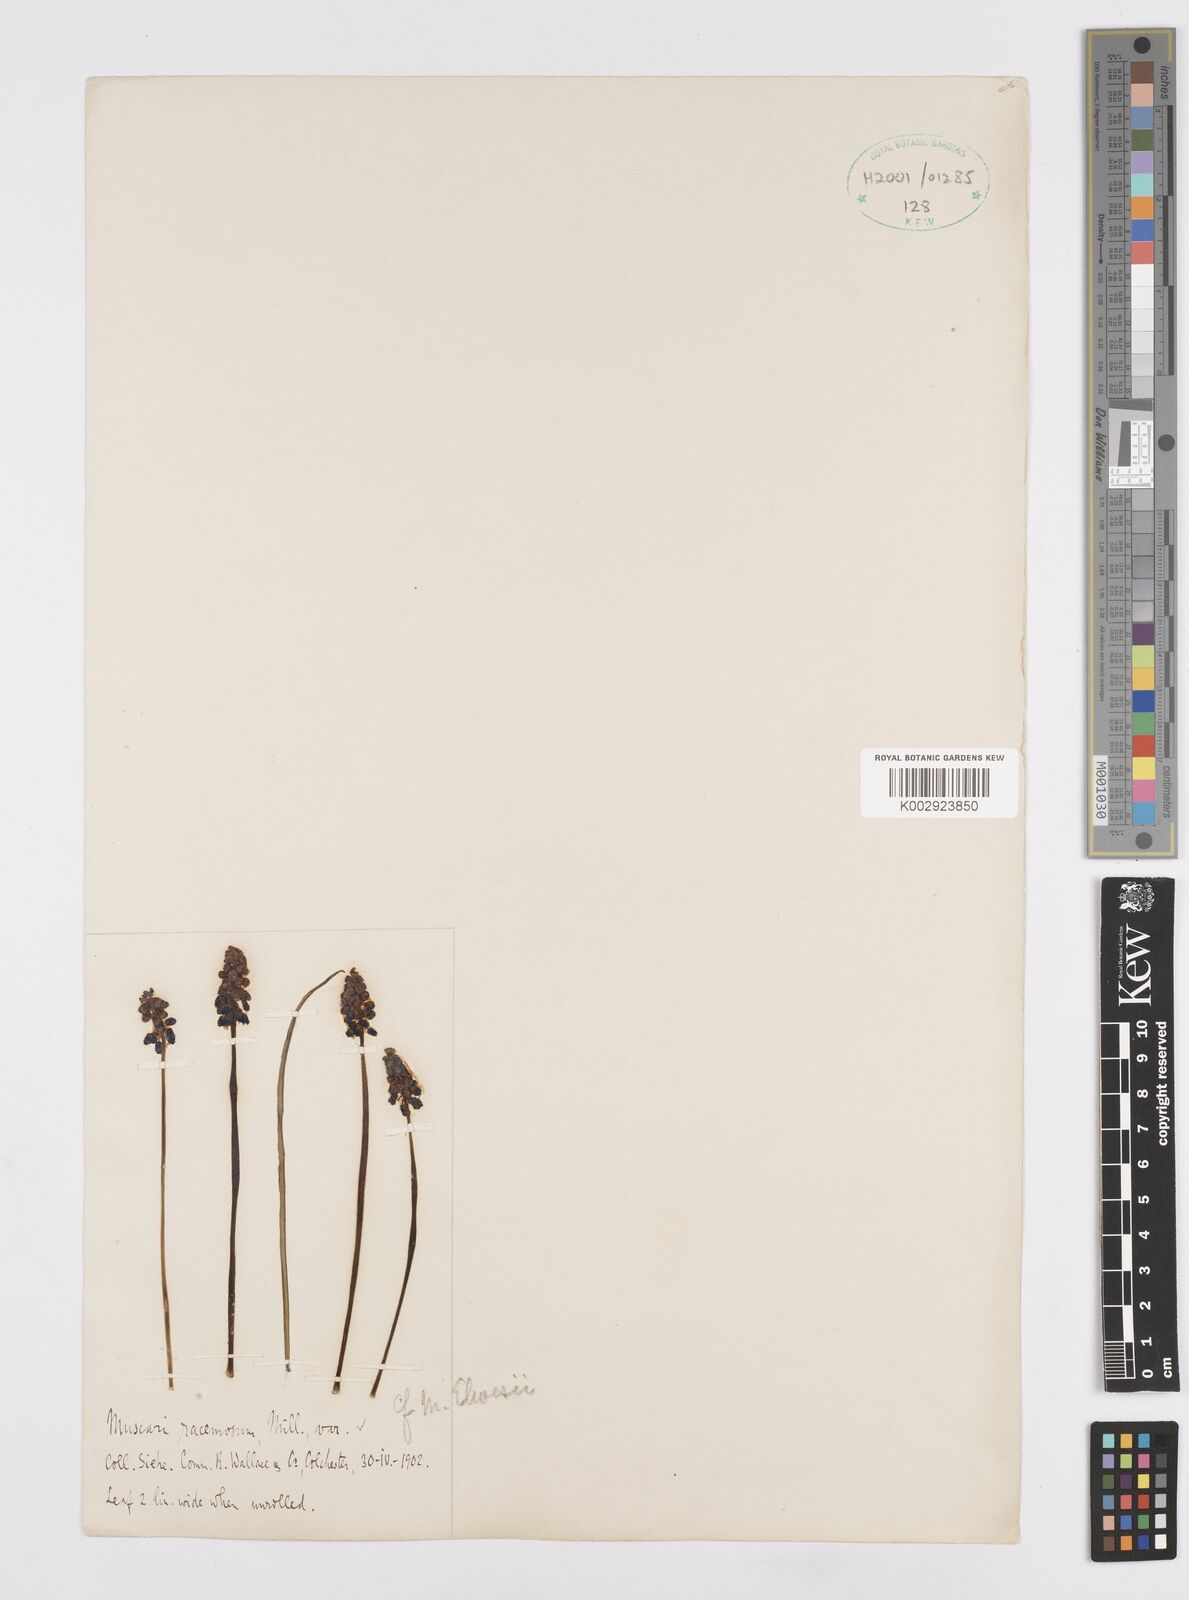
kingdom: Plantae
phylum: Tracheophyta
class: Liliopsida
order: Asparagales
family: Asparagaceae
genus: Muscari
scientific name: Muscari neglectum
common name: Grape-hyacinth
